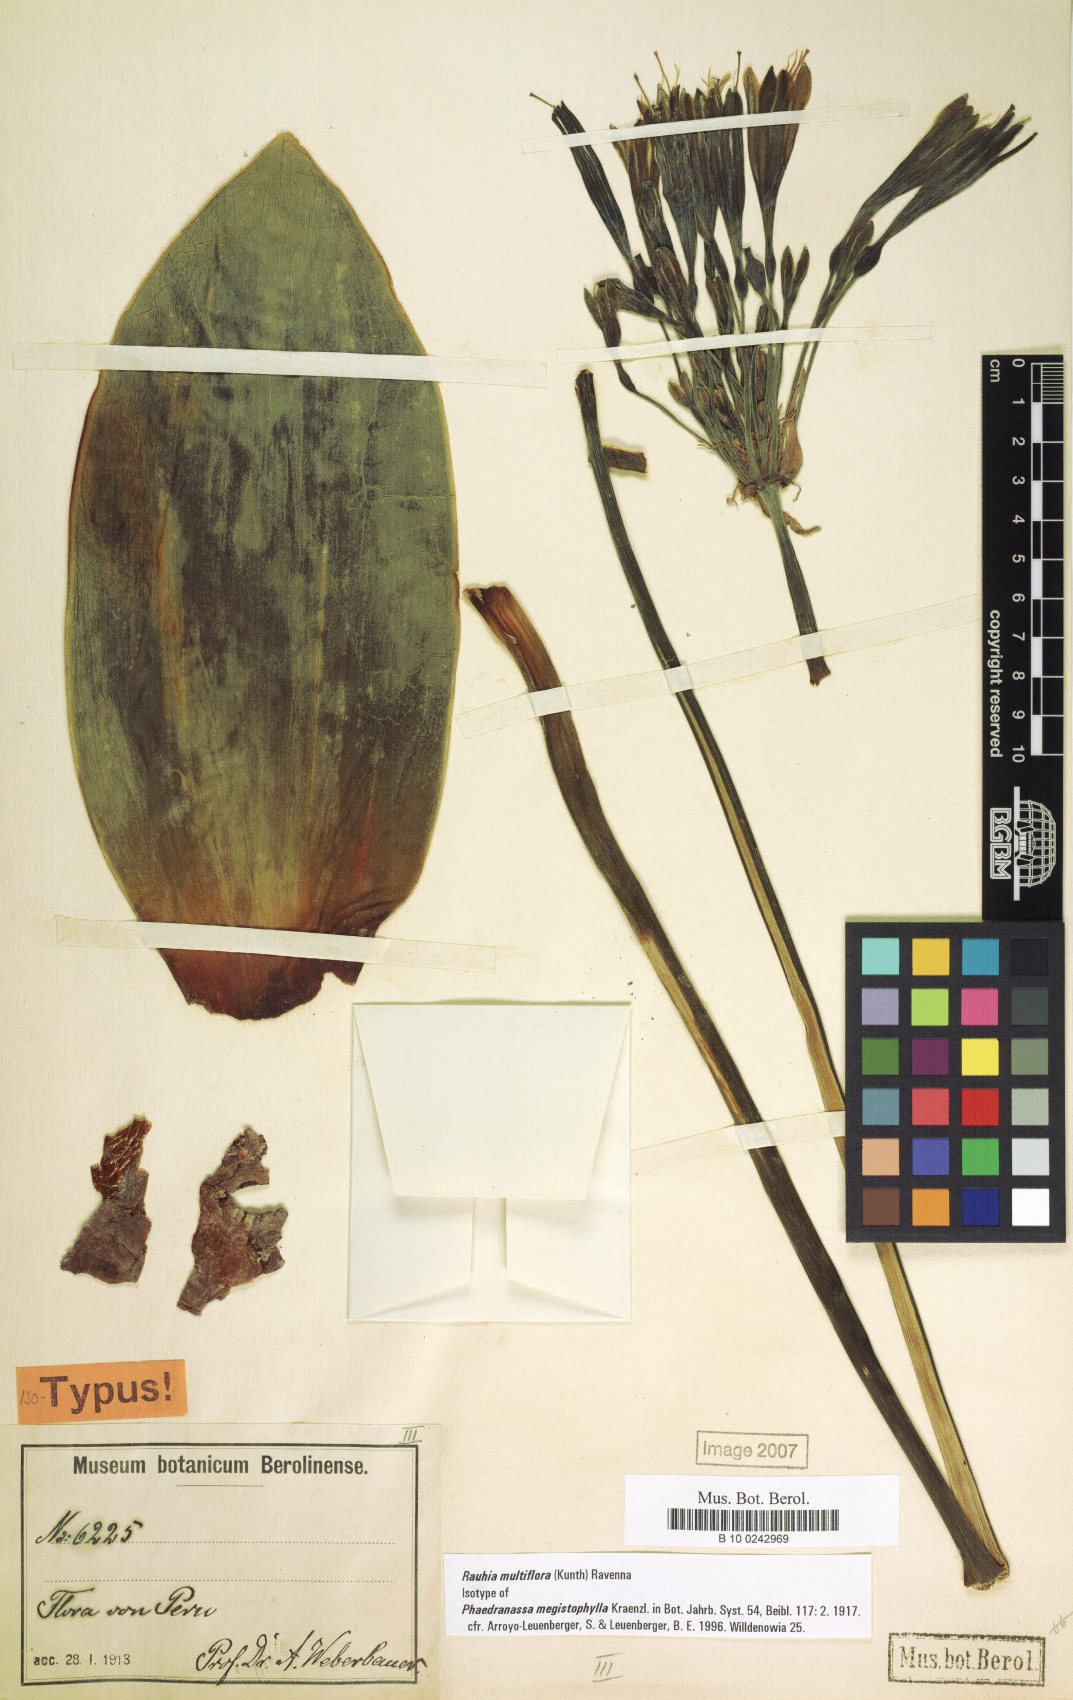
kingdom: Plantae
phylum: Tracheophyta
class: Liliopsida
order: Asparagales
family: Amaryllidaceae
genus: Rauhia
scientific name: Rauhia multiflora
